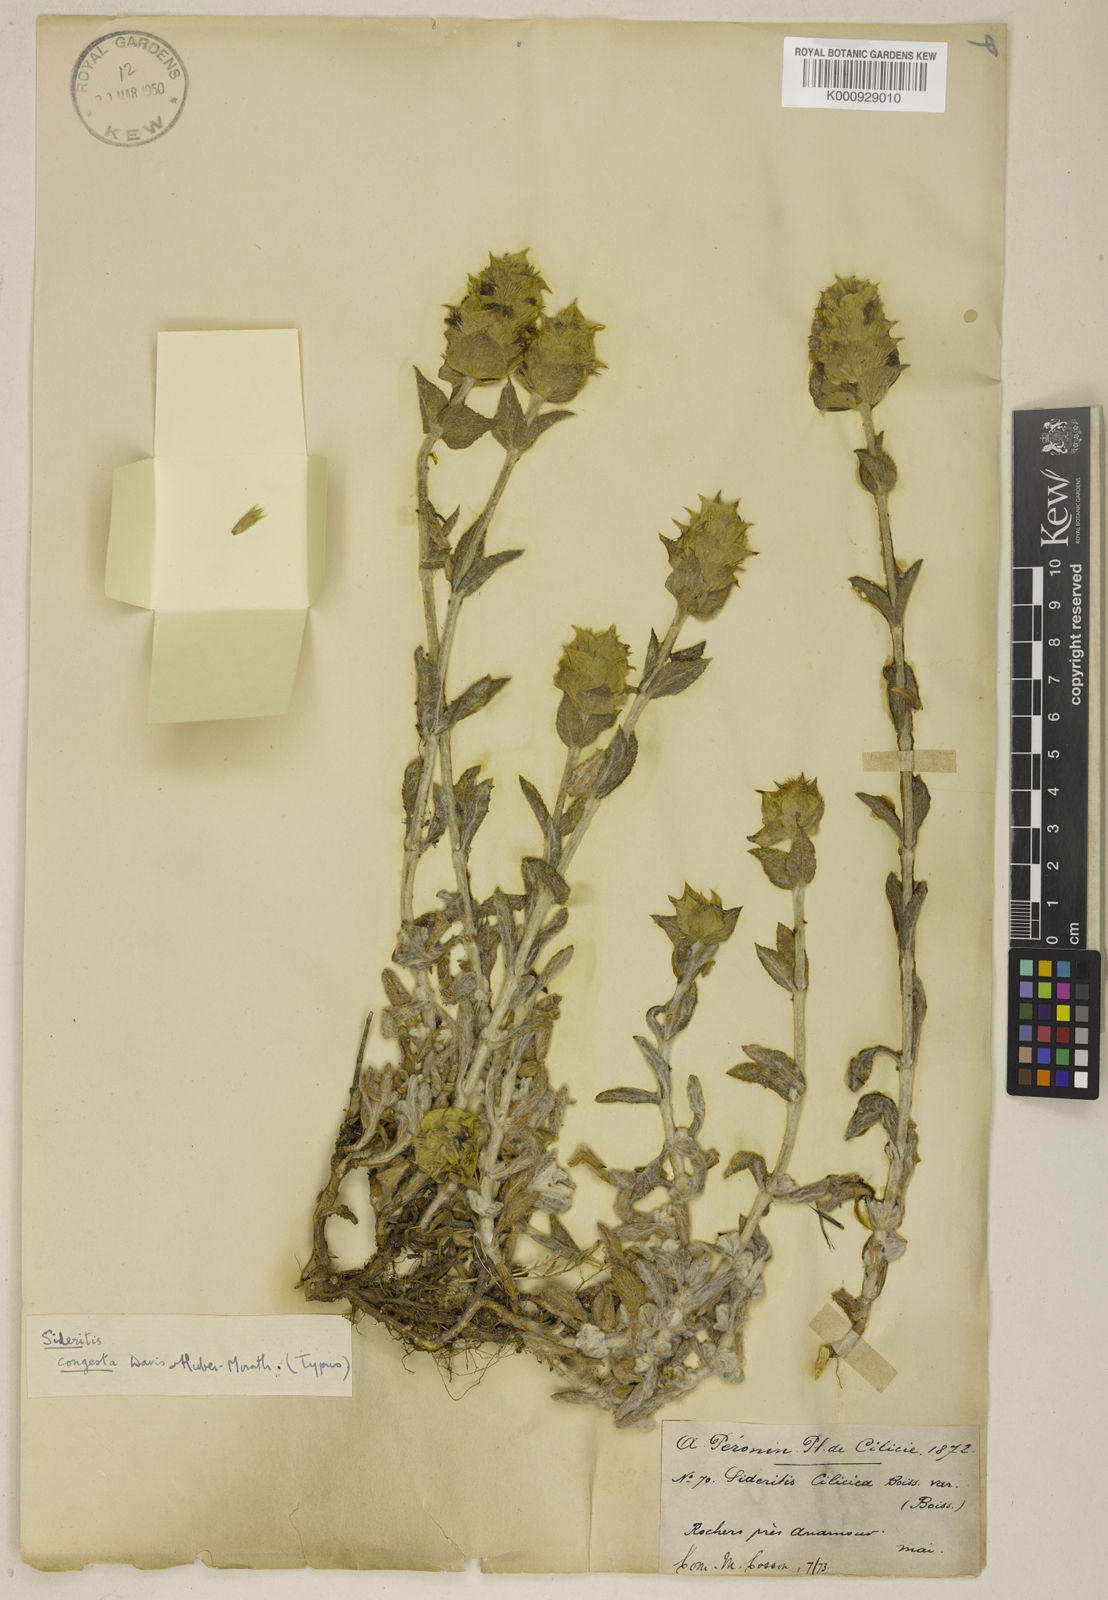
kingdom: Plantae
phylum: Tracheophyta
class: Magnoliopsida
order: Lamiales
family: Lamiaceae
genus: Sideritis
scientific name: Sideritis congesta
